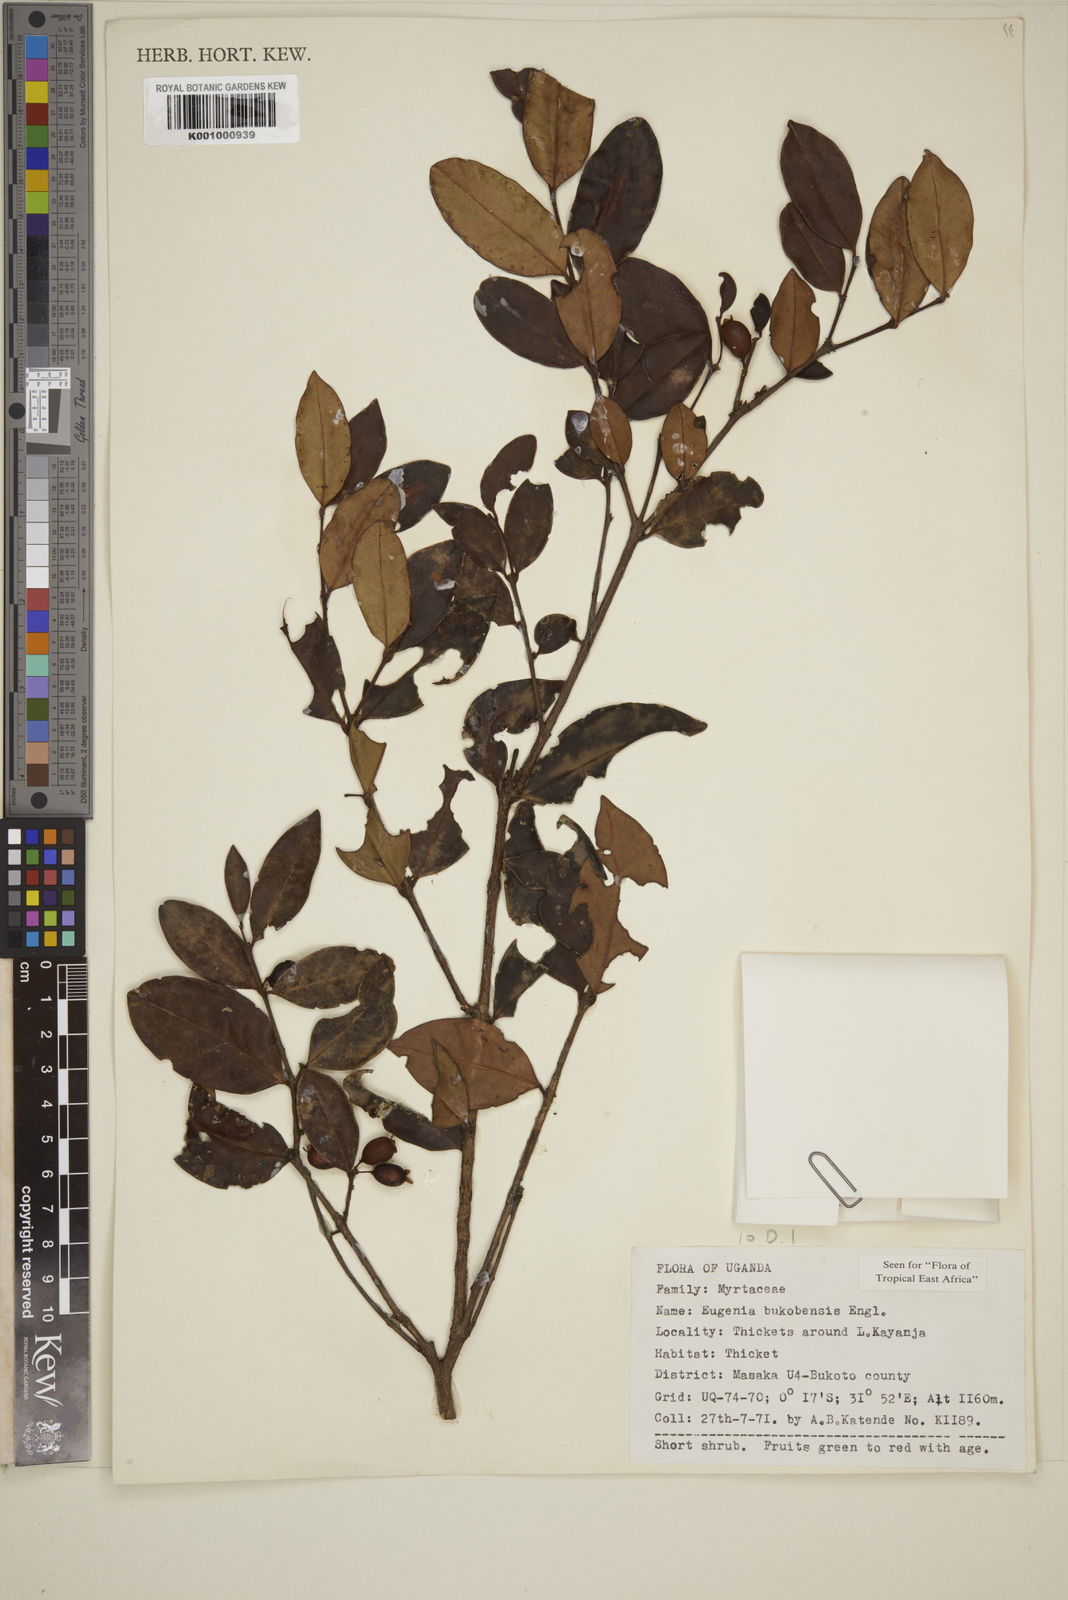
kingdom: Plantae
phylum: Tracheophyta
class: Magnoliopsida
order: Myrtales
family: Myrtaceae
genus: Eugenia
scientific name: Eugenia bukobensis
